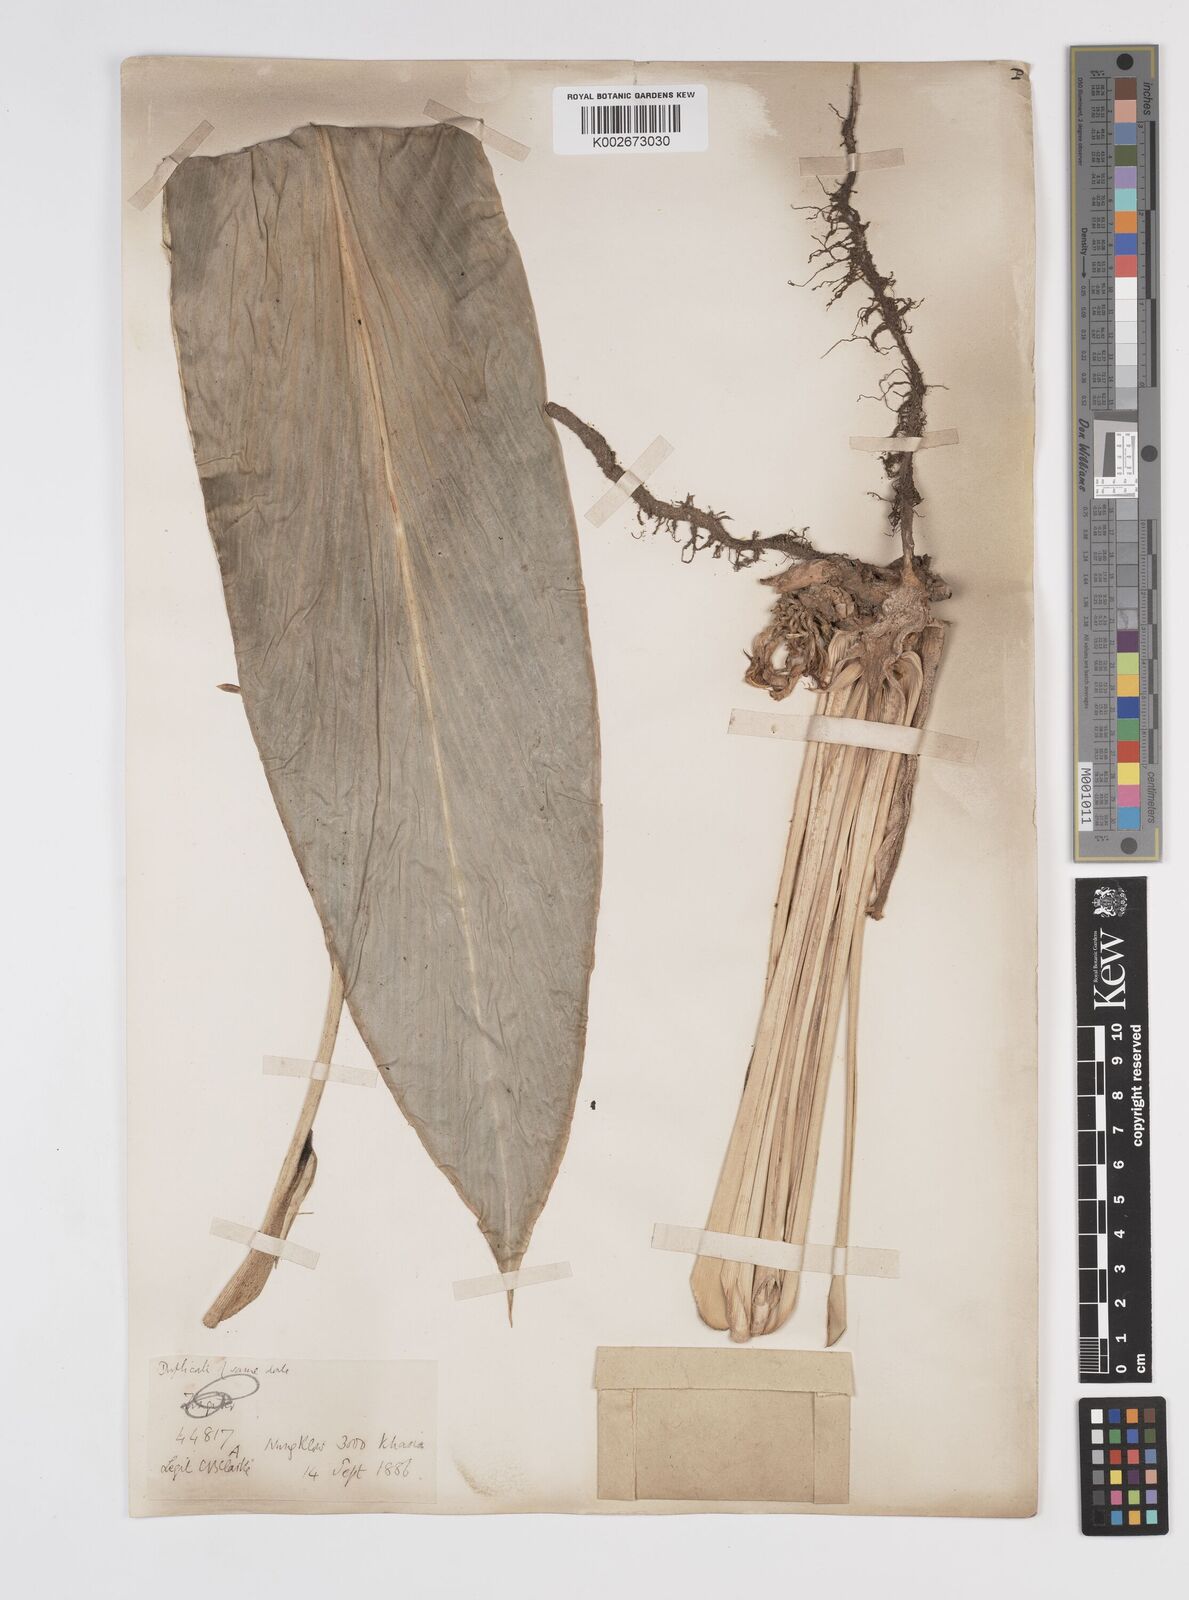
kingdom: Plantae
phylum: Tracheophyta
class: Liliopsida
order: Zingiberales
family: Zingiberaceae
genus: Amomum
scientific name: Amomum dealbatum
